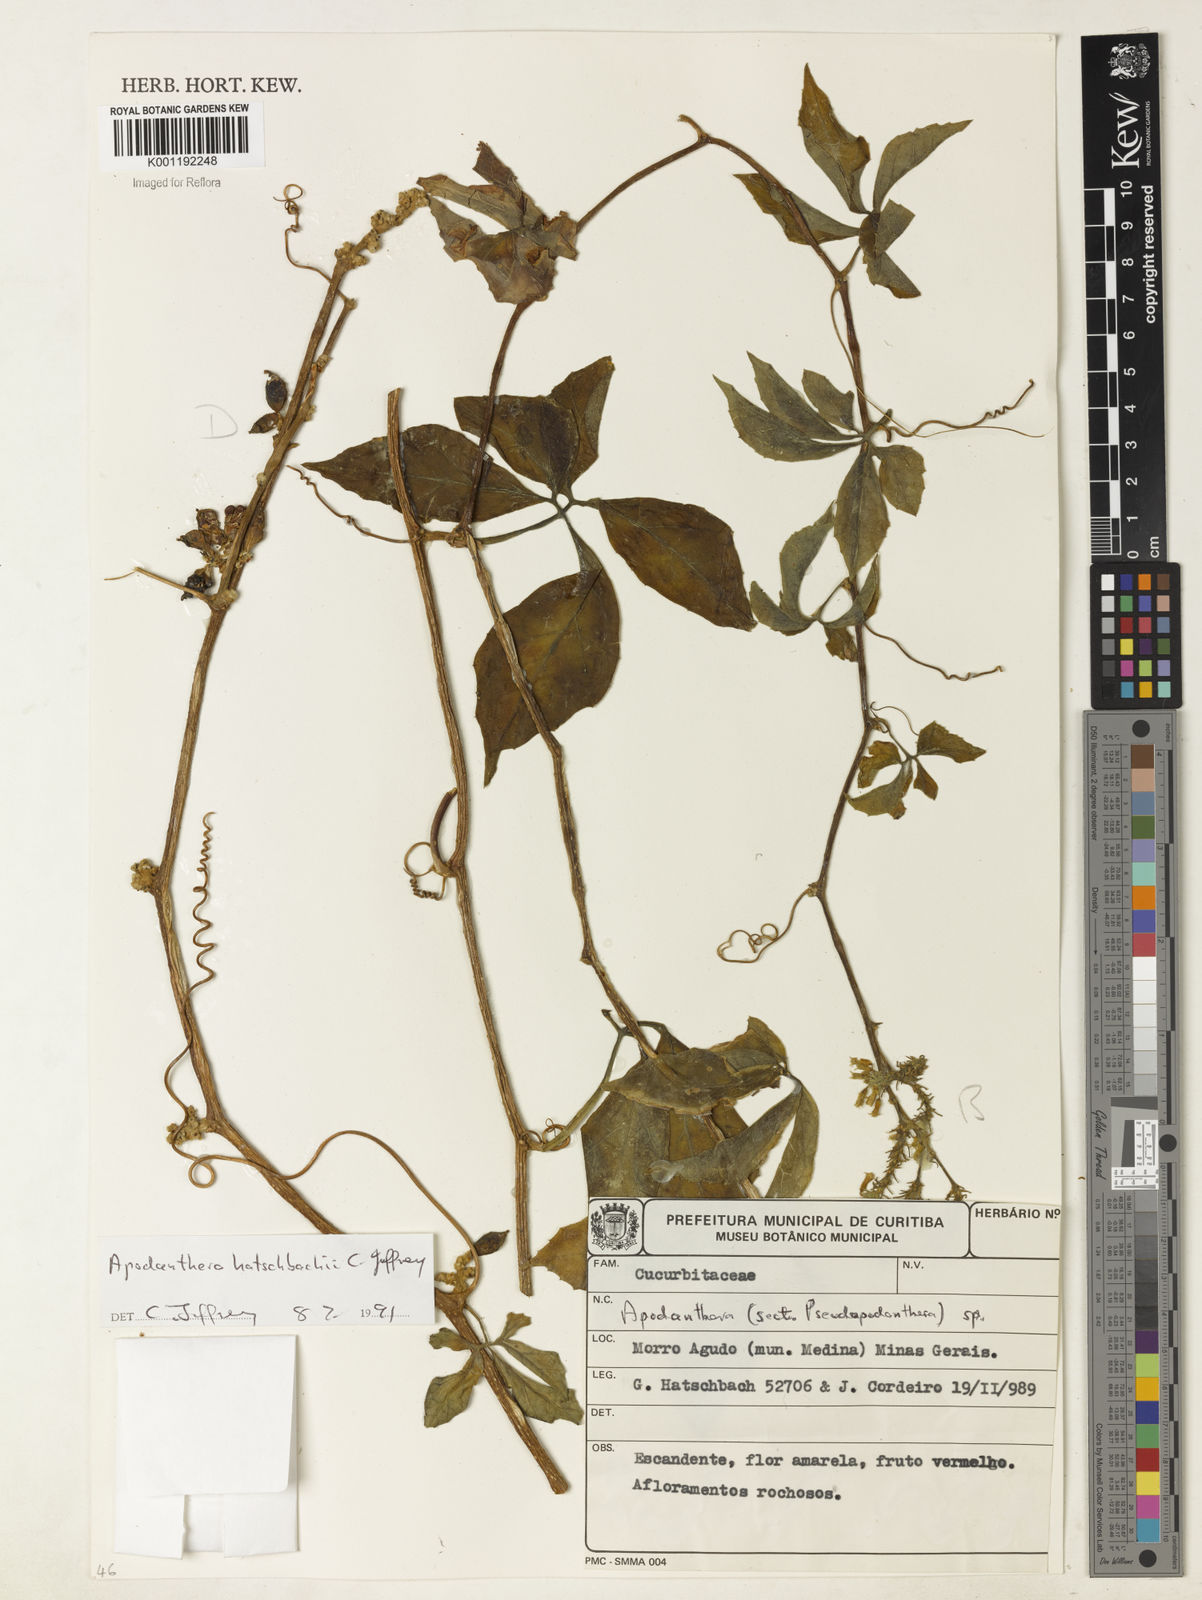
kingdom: Plantae
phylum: Tracheophyta
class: Magnoliopsida
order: Cucurbitales
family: Cucurbitaceae
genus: Apodanthera
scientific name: Apodanthera bradei
